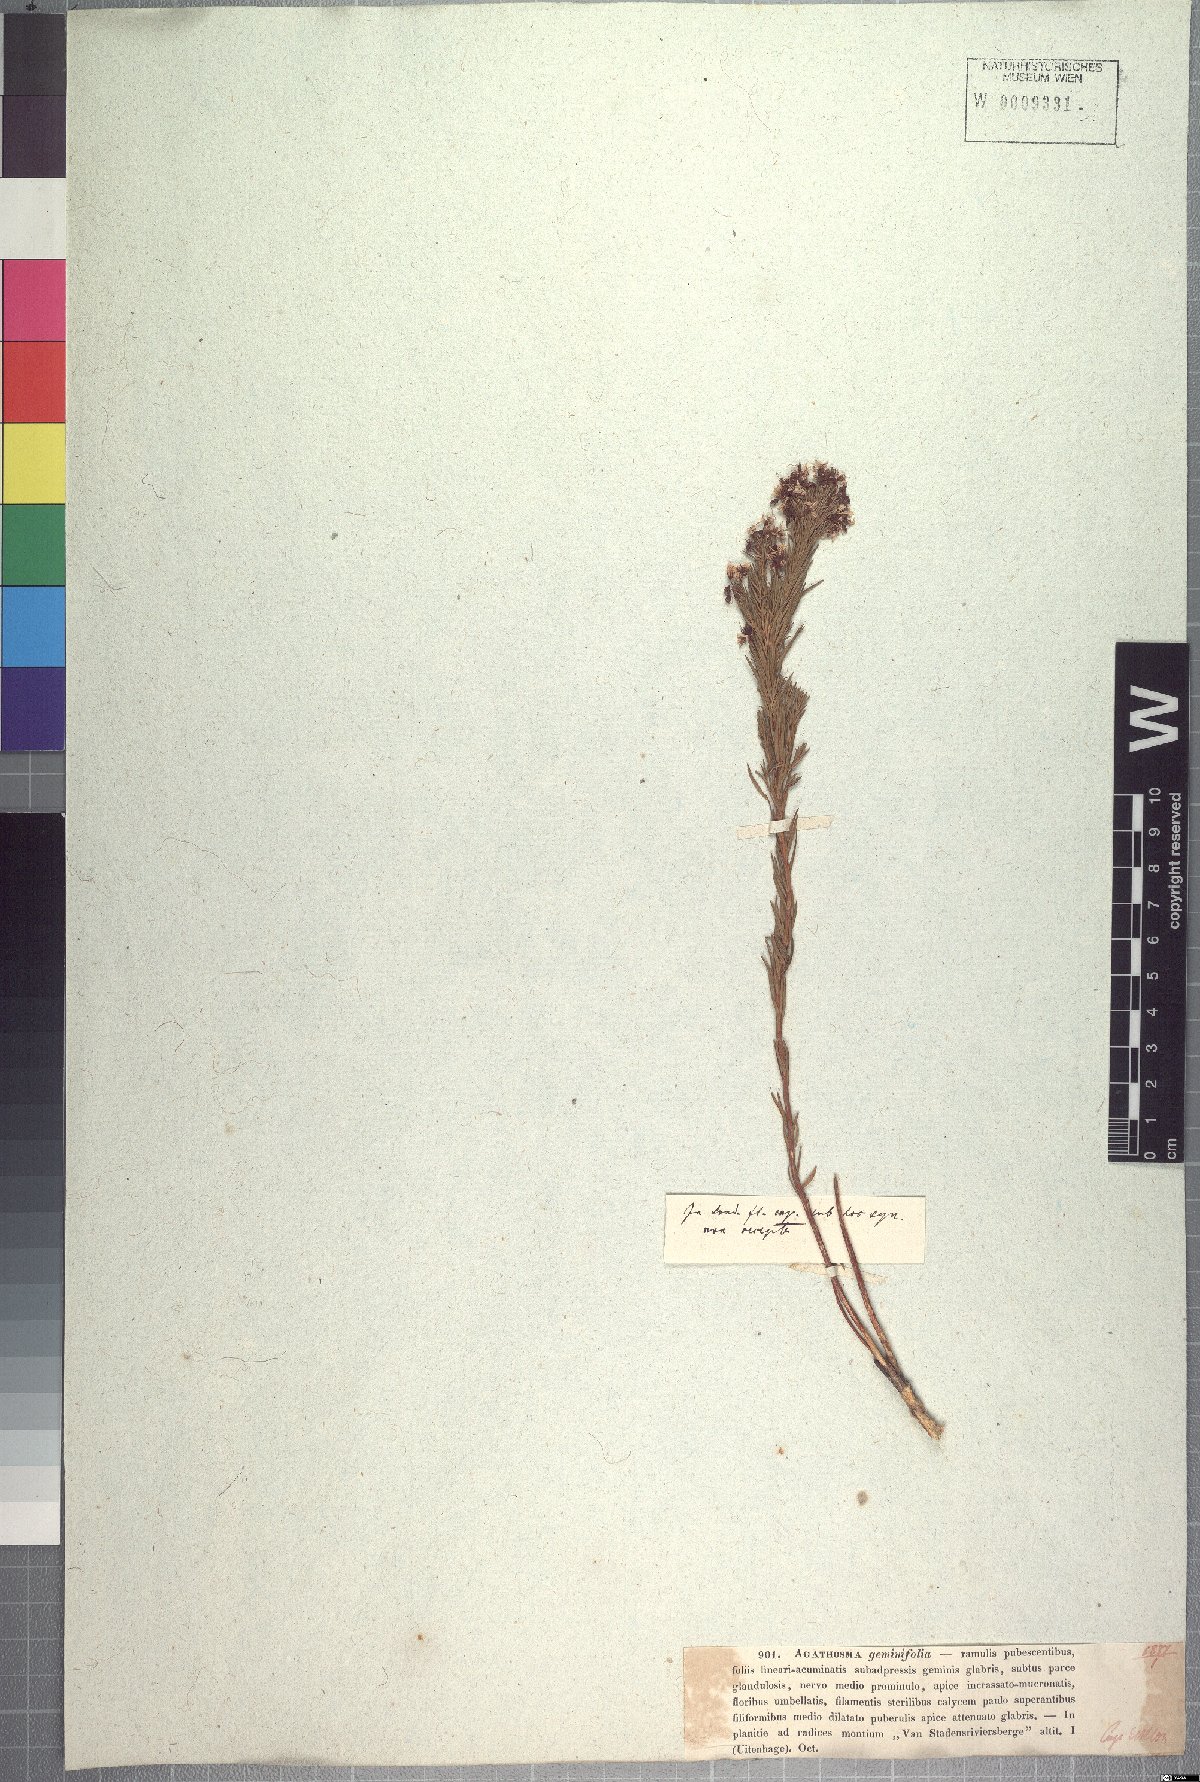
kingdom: Plantae
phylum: Tracheophyta
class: Magnoliopsida
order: Sapindales
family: Rutaceae
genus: Agathosma
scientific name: Agathosma capensis
